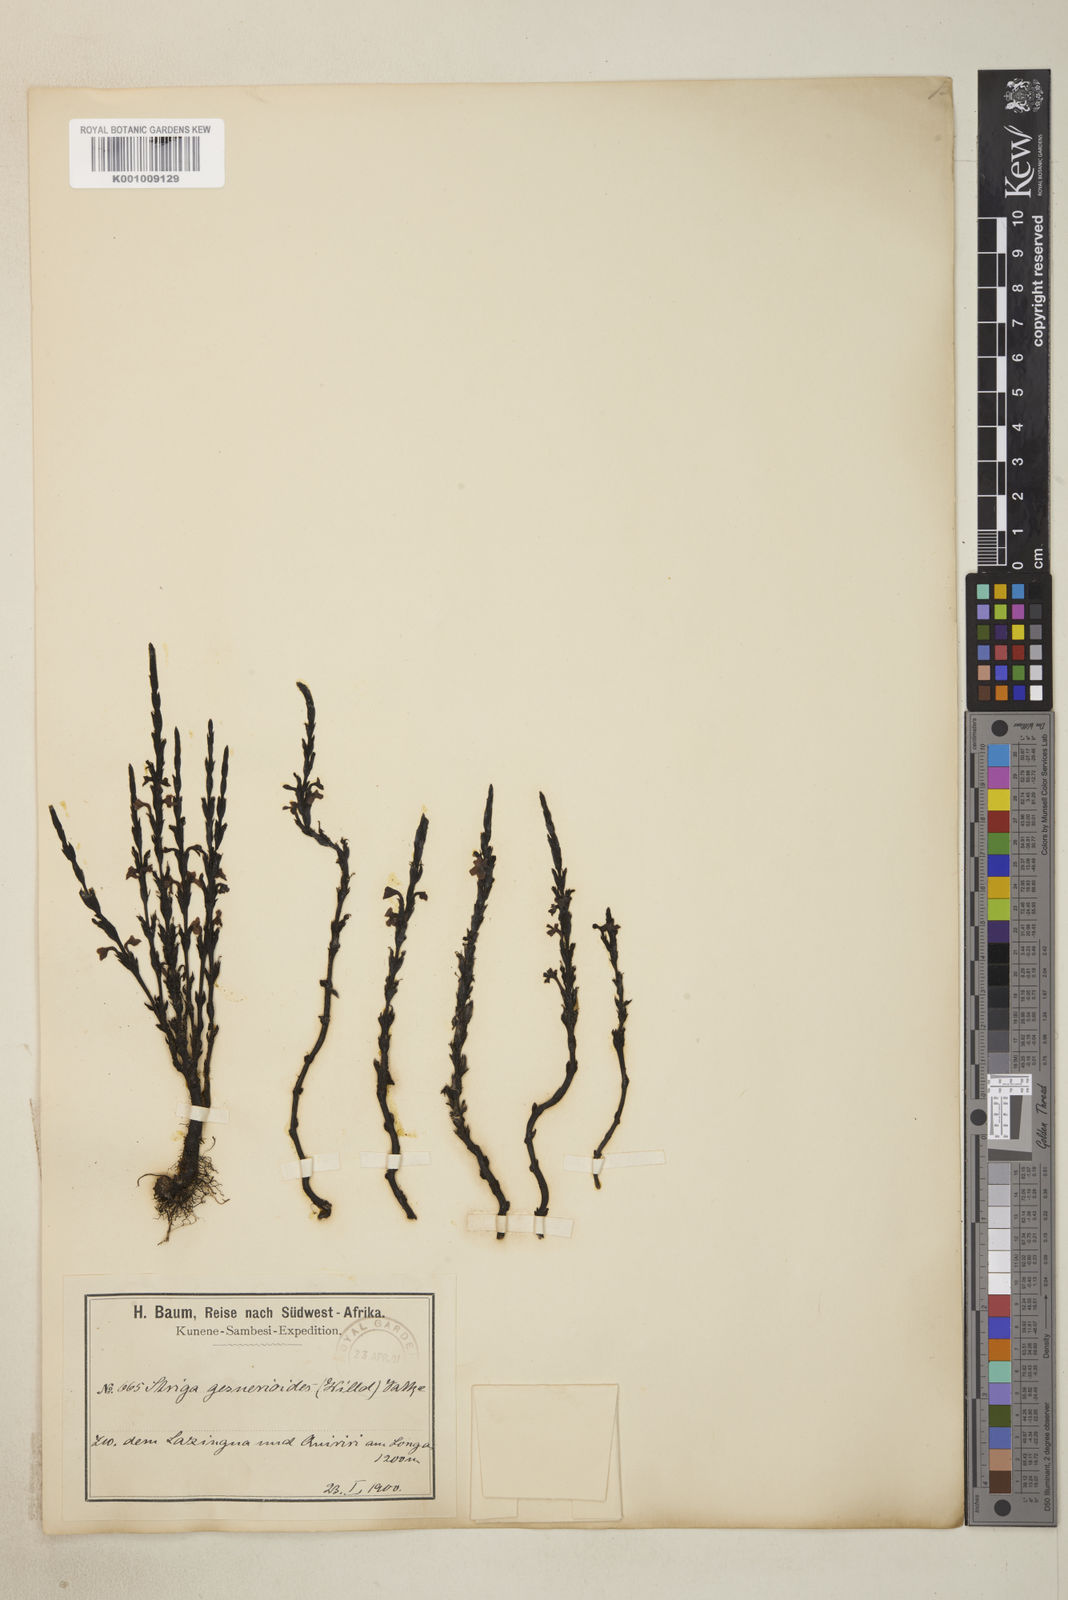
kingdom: Plantae
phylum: Tracheophyta
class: Magnoliopsida
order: Lamiales
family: Orobanchaceae
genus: Striga
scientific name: Striga gesnerioides
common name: Cowpea witchweed
